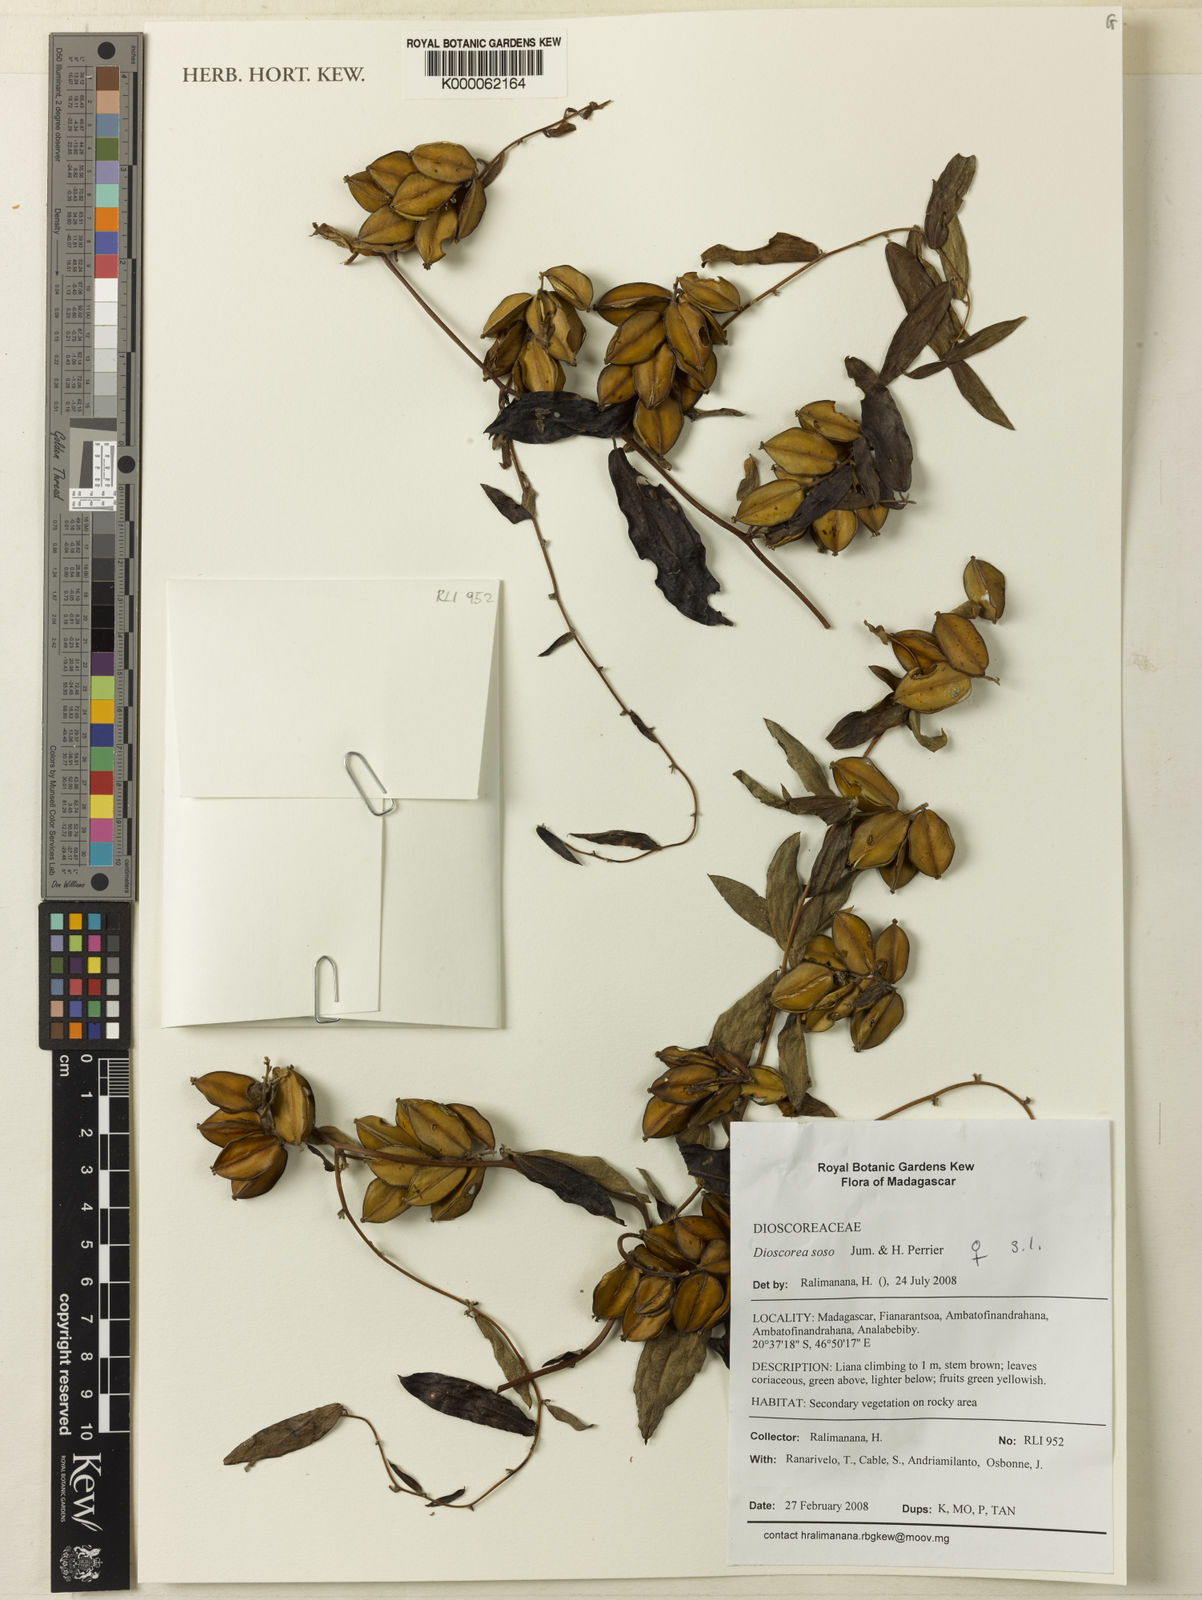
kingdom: Plantae
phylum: Tracheophyta
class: Liliopsida
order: Dioscoreales
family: Dioscoreaceae
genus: Dioscorea
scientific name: Dioscorea soso
